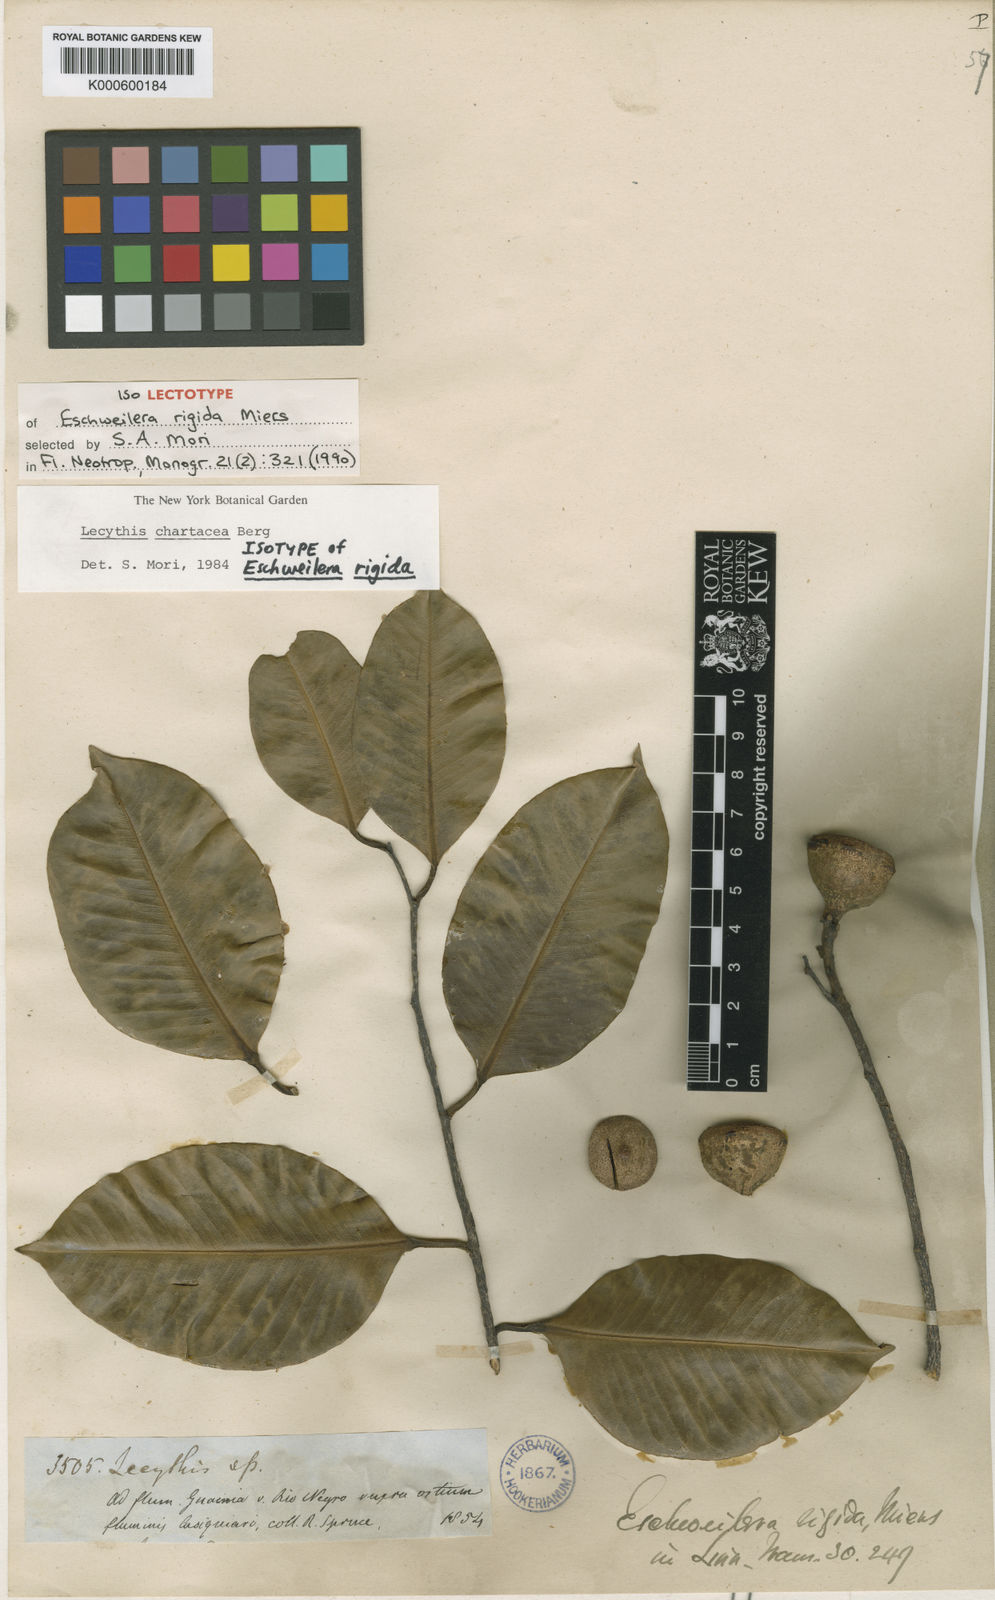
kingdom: Plantae
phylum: Tracheophyta
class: Magnoliopsida
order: Ericales
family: Lecythidaceae
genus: Lecythis
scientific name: Lecythis chartacea
